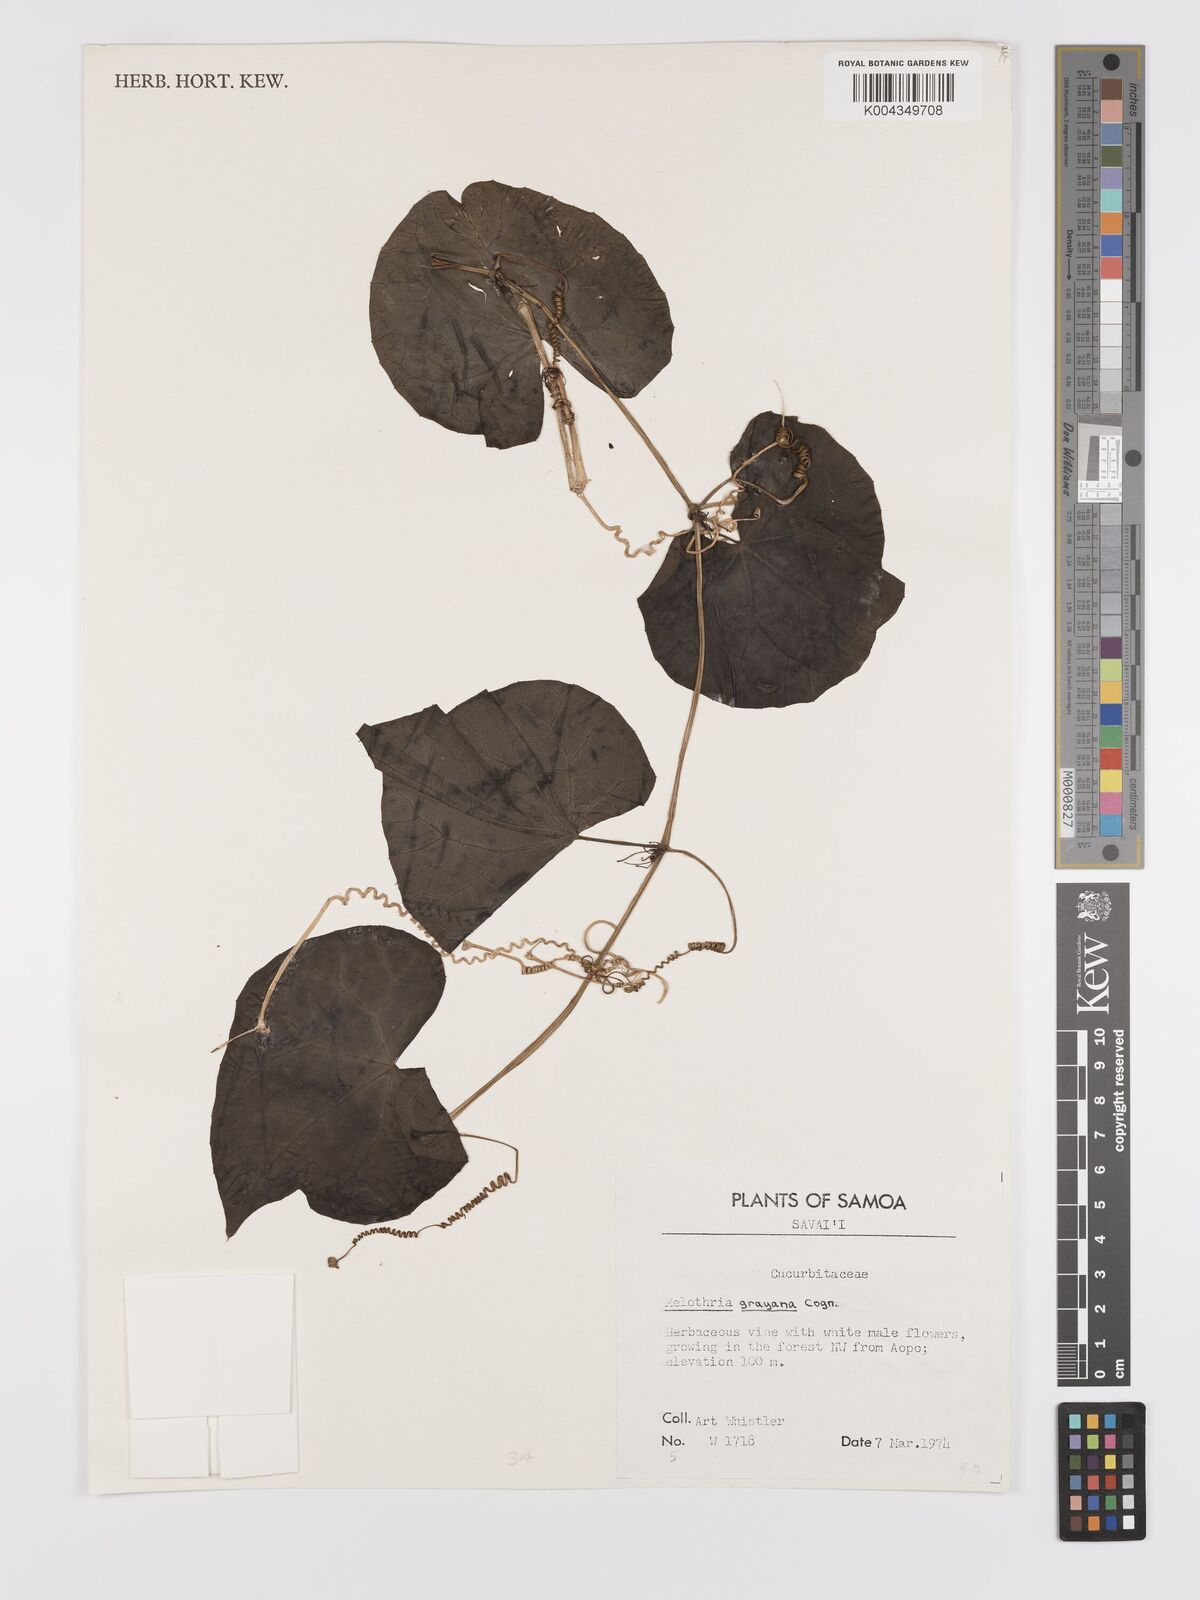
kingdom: Plantae
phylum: Tracheophyta
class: Magnoliopsida
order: Cucurbitales
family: Cucurbitaceae
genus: Zehneria
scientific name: Zehneria
